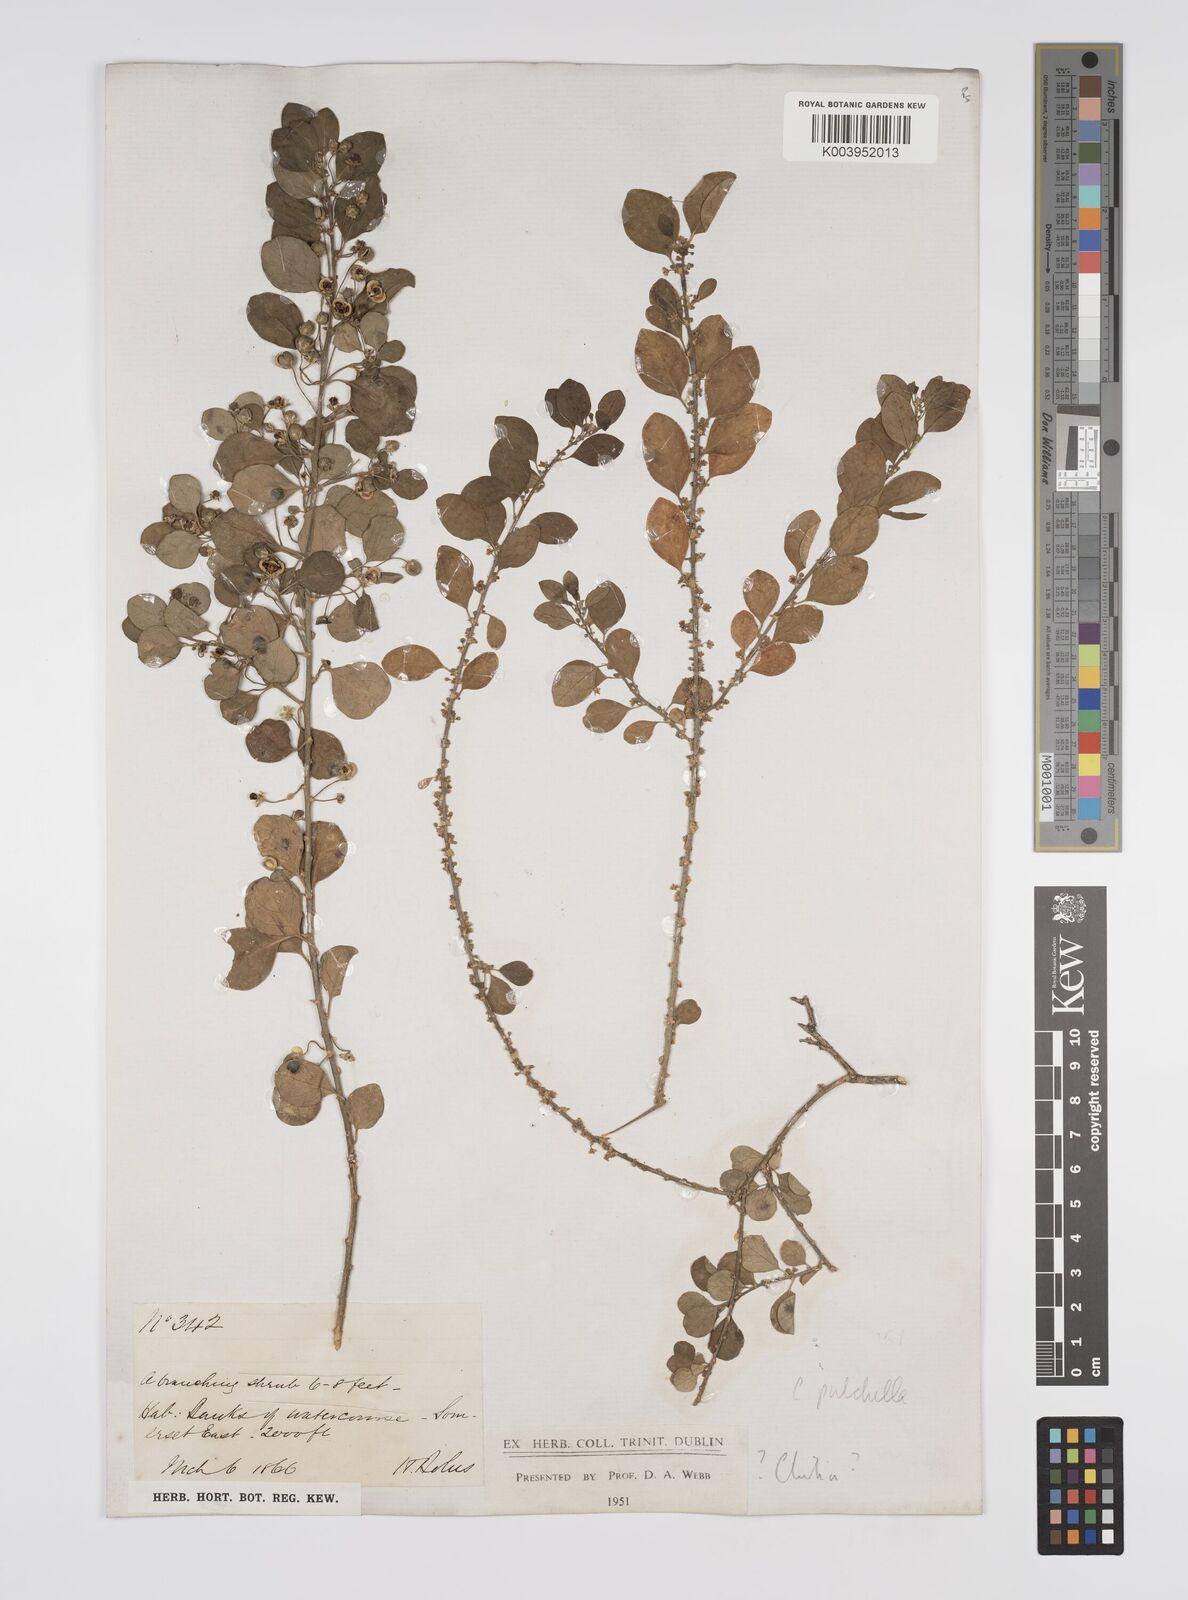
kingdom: Plantae
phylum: Tracheophyta
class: Magnoliopsida
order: Malpighiales
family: Peraceae
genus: Clutia
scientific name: Clutia pulchella
